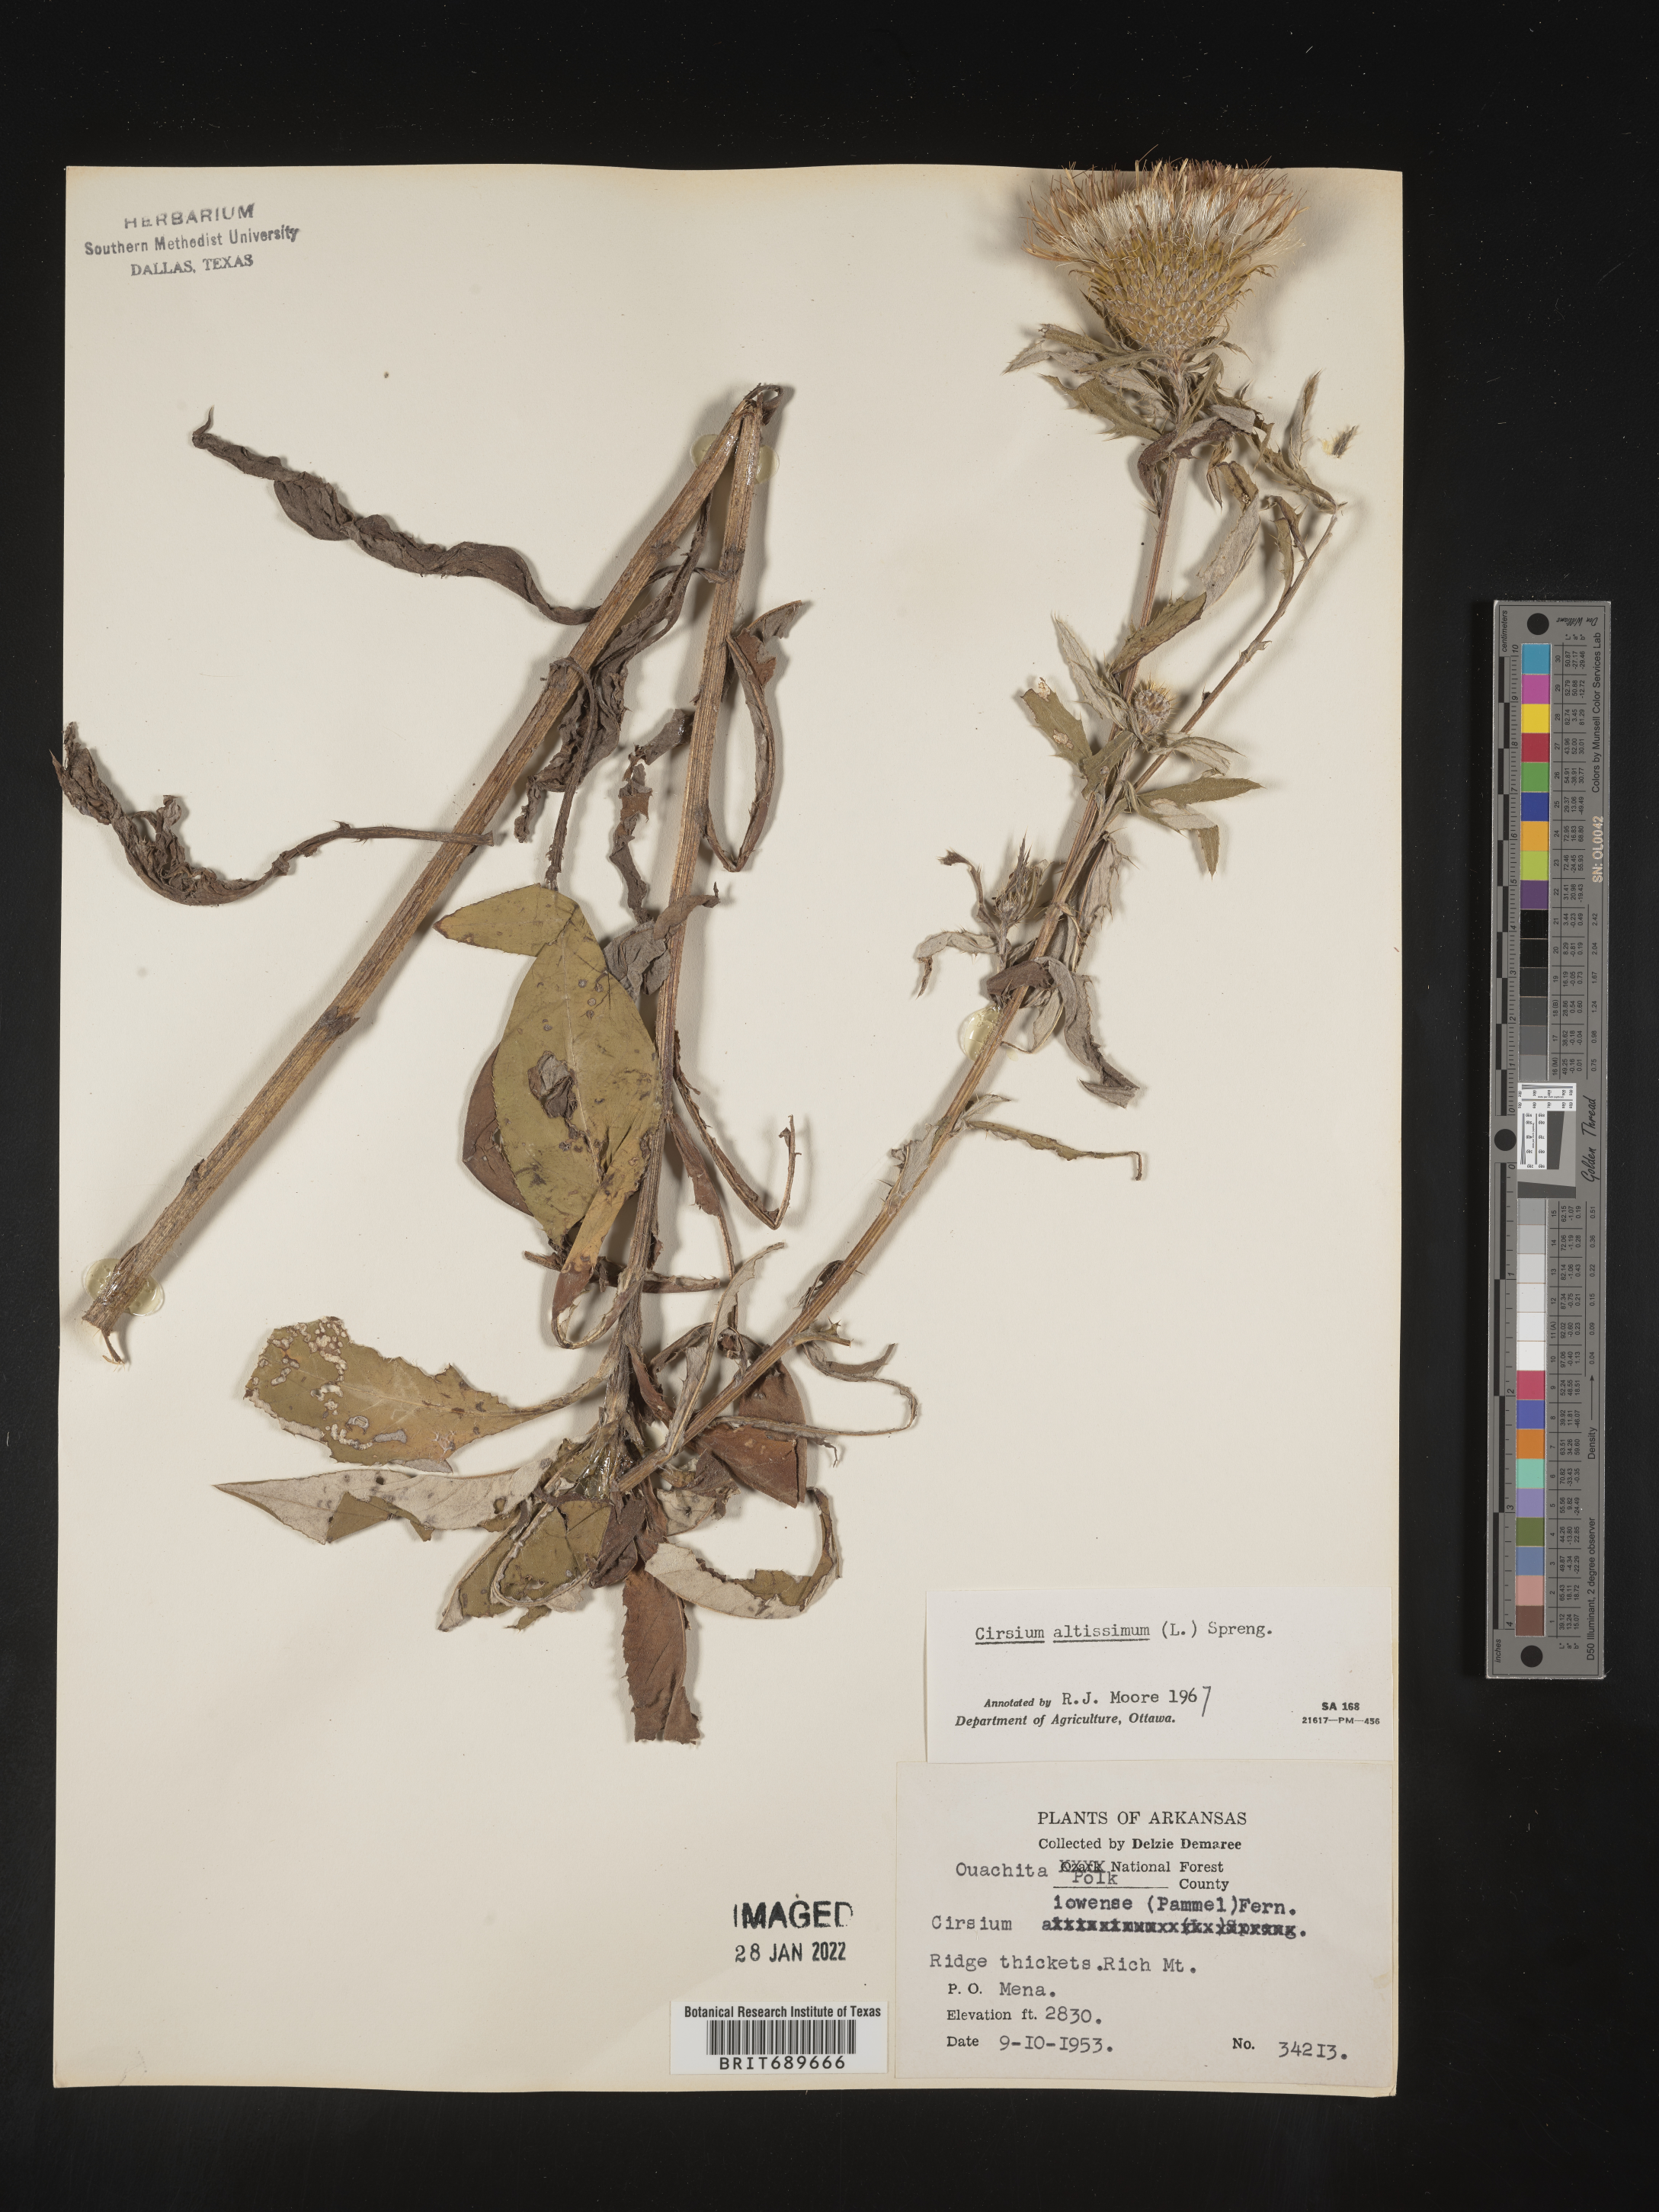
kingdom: Plantae
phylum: Tracheophyta
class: Magnoliopsida
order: Asterales
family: Asteraceae
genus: Cirsium
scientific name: Cirsium altissimum
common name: Roadside thistle
